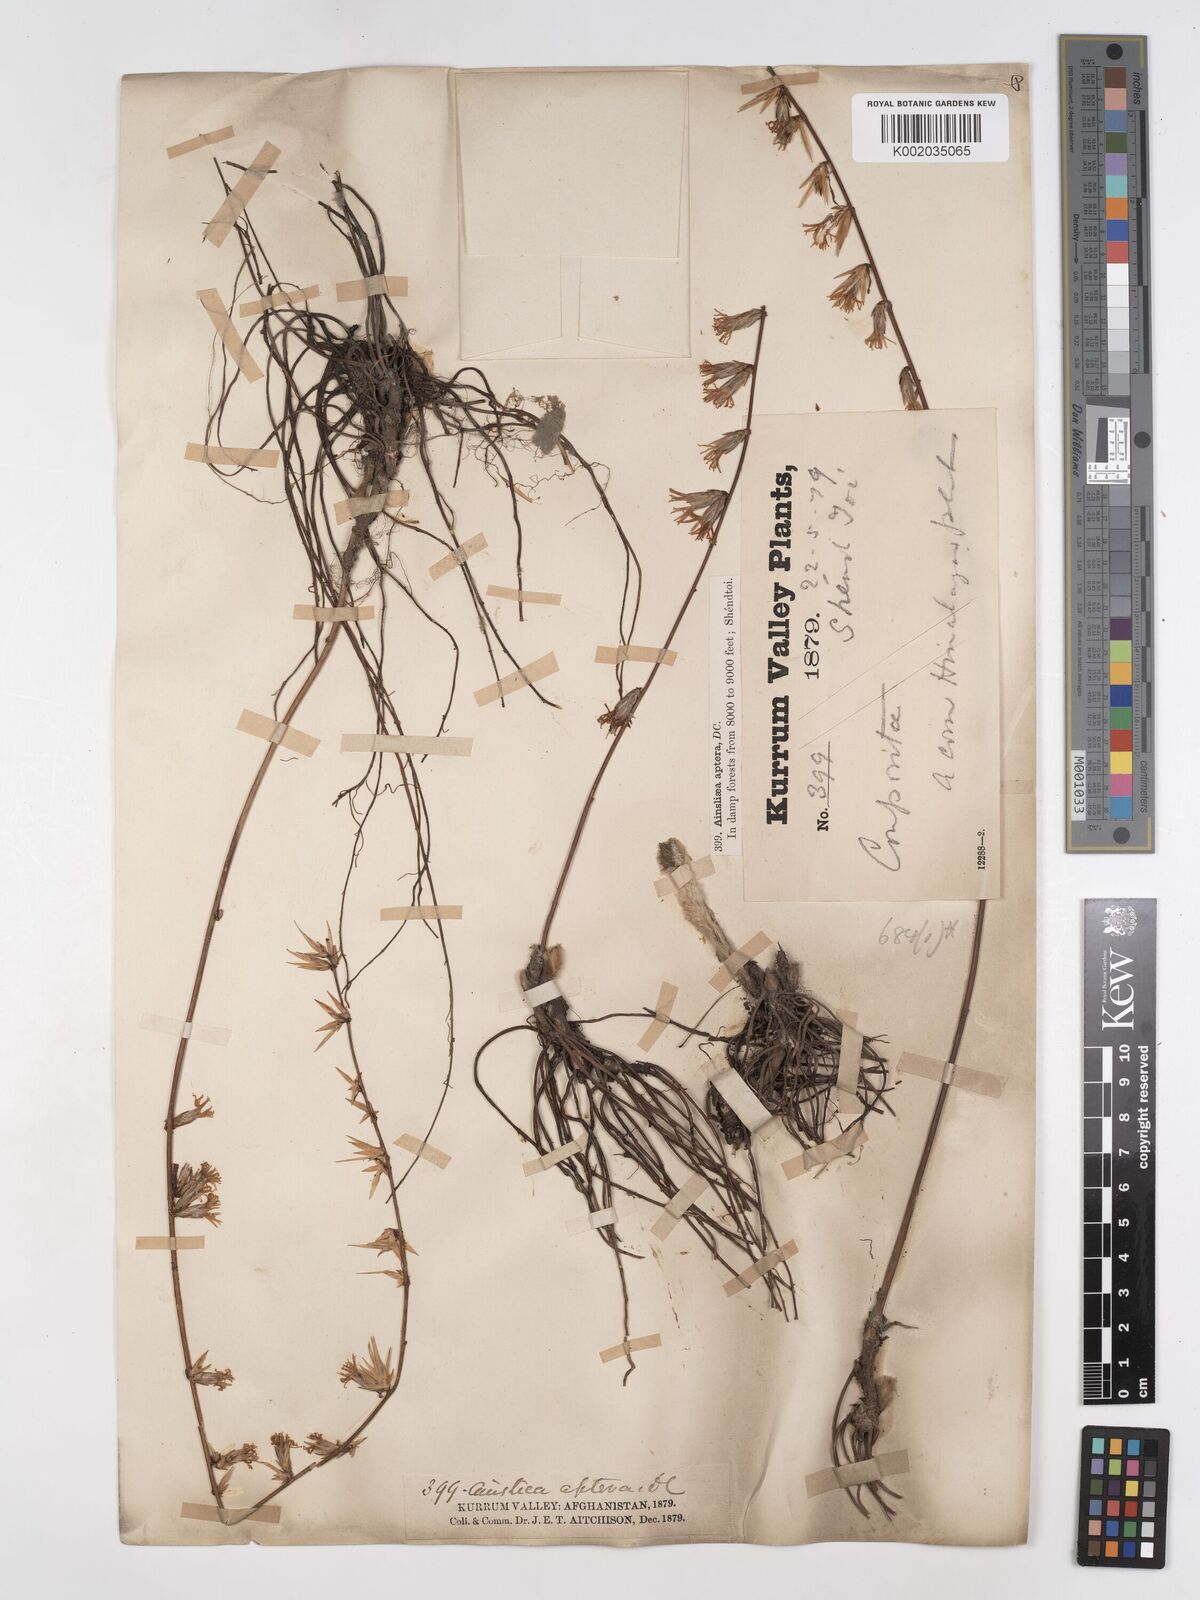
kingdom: Plantae
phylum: Tracheophyta
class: Magnoliopsida
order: Asterales
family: Asteraceae
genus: Ainsliaea
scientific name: Ainsliaea aptera
